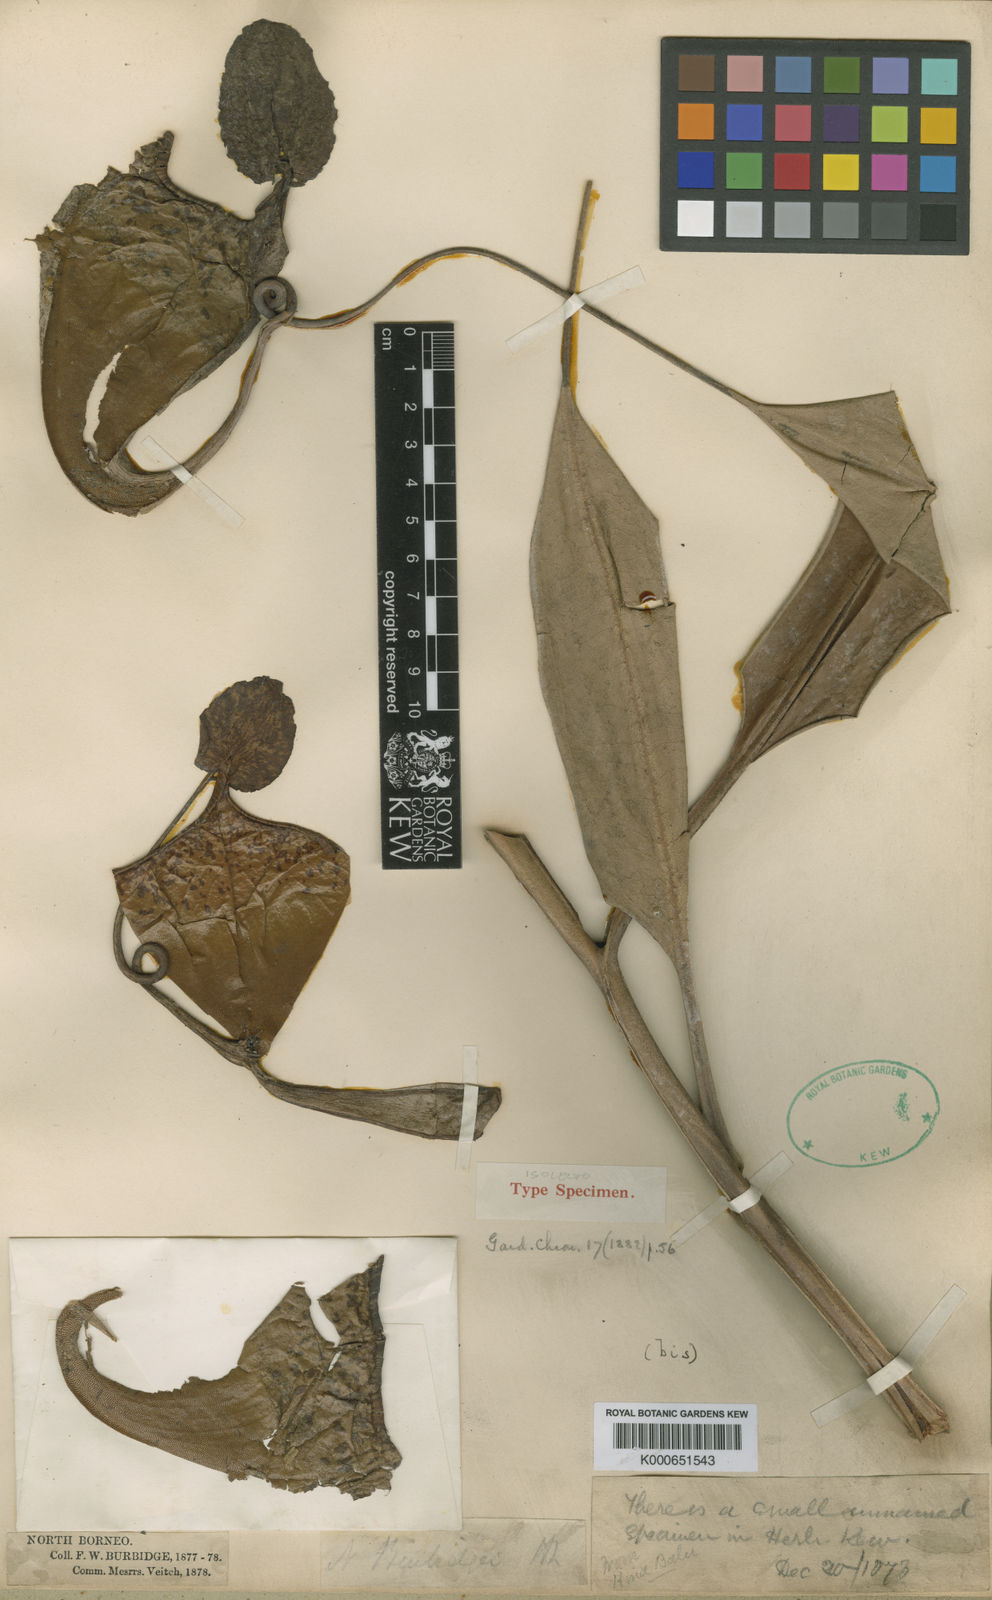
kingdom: Plantae
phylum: Tracheophyta
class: Magnoliopsida
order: Caryophyllales
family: Nepenthaceae
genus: Nepenthes
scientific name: Nepenthes
